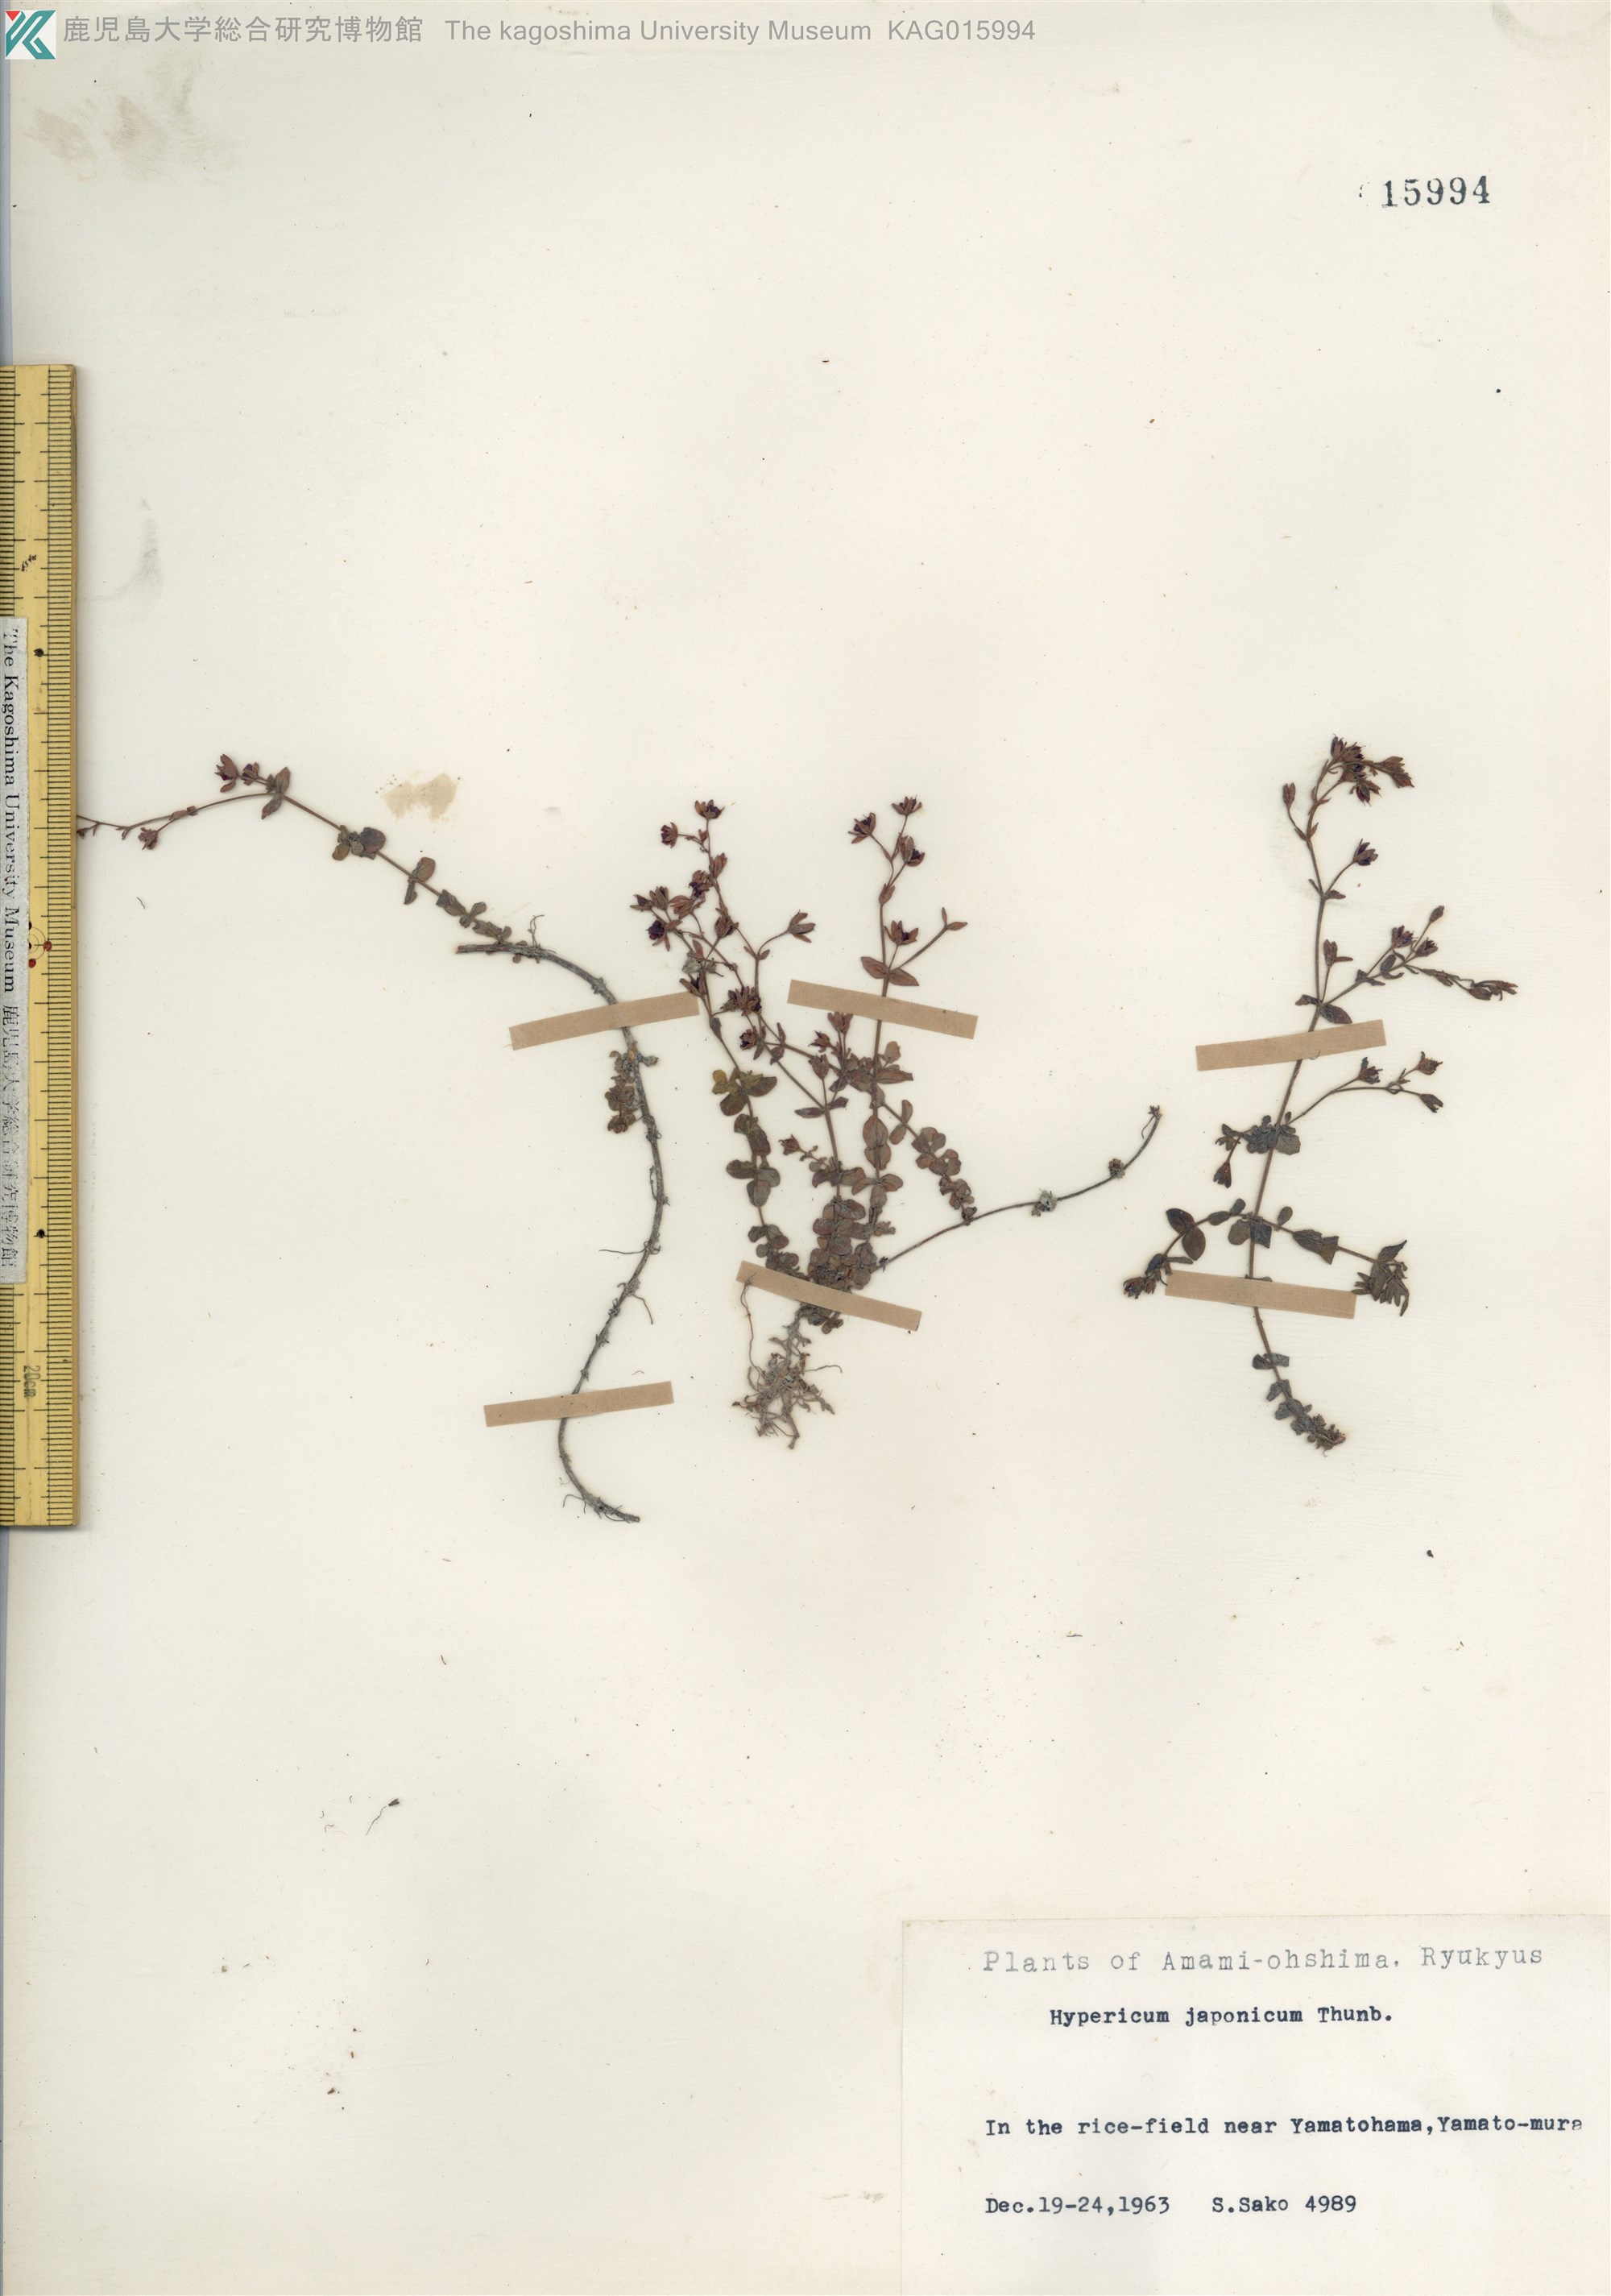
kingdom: Plantae
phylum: Tracheophyta
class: Magnoliopsida
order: Malpighiales
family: Hypericaceae
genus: Hypericum
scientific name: Hypericum japonicum
